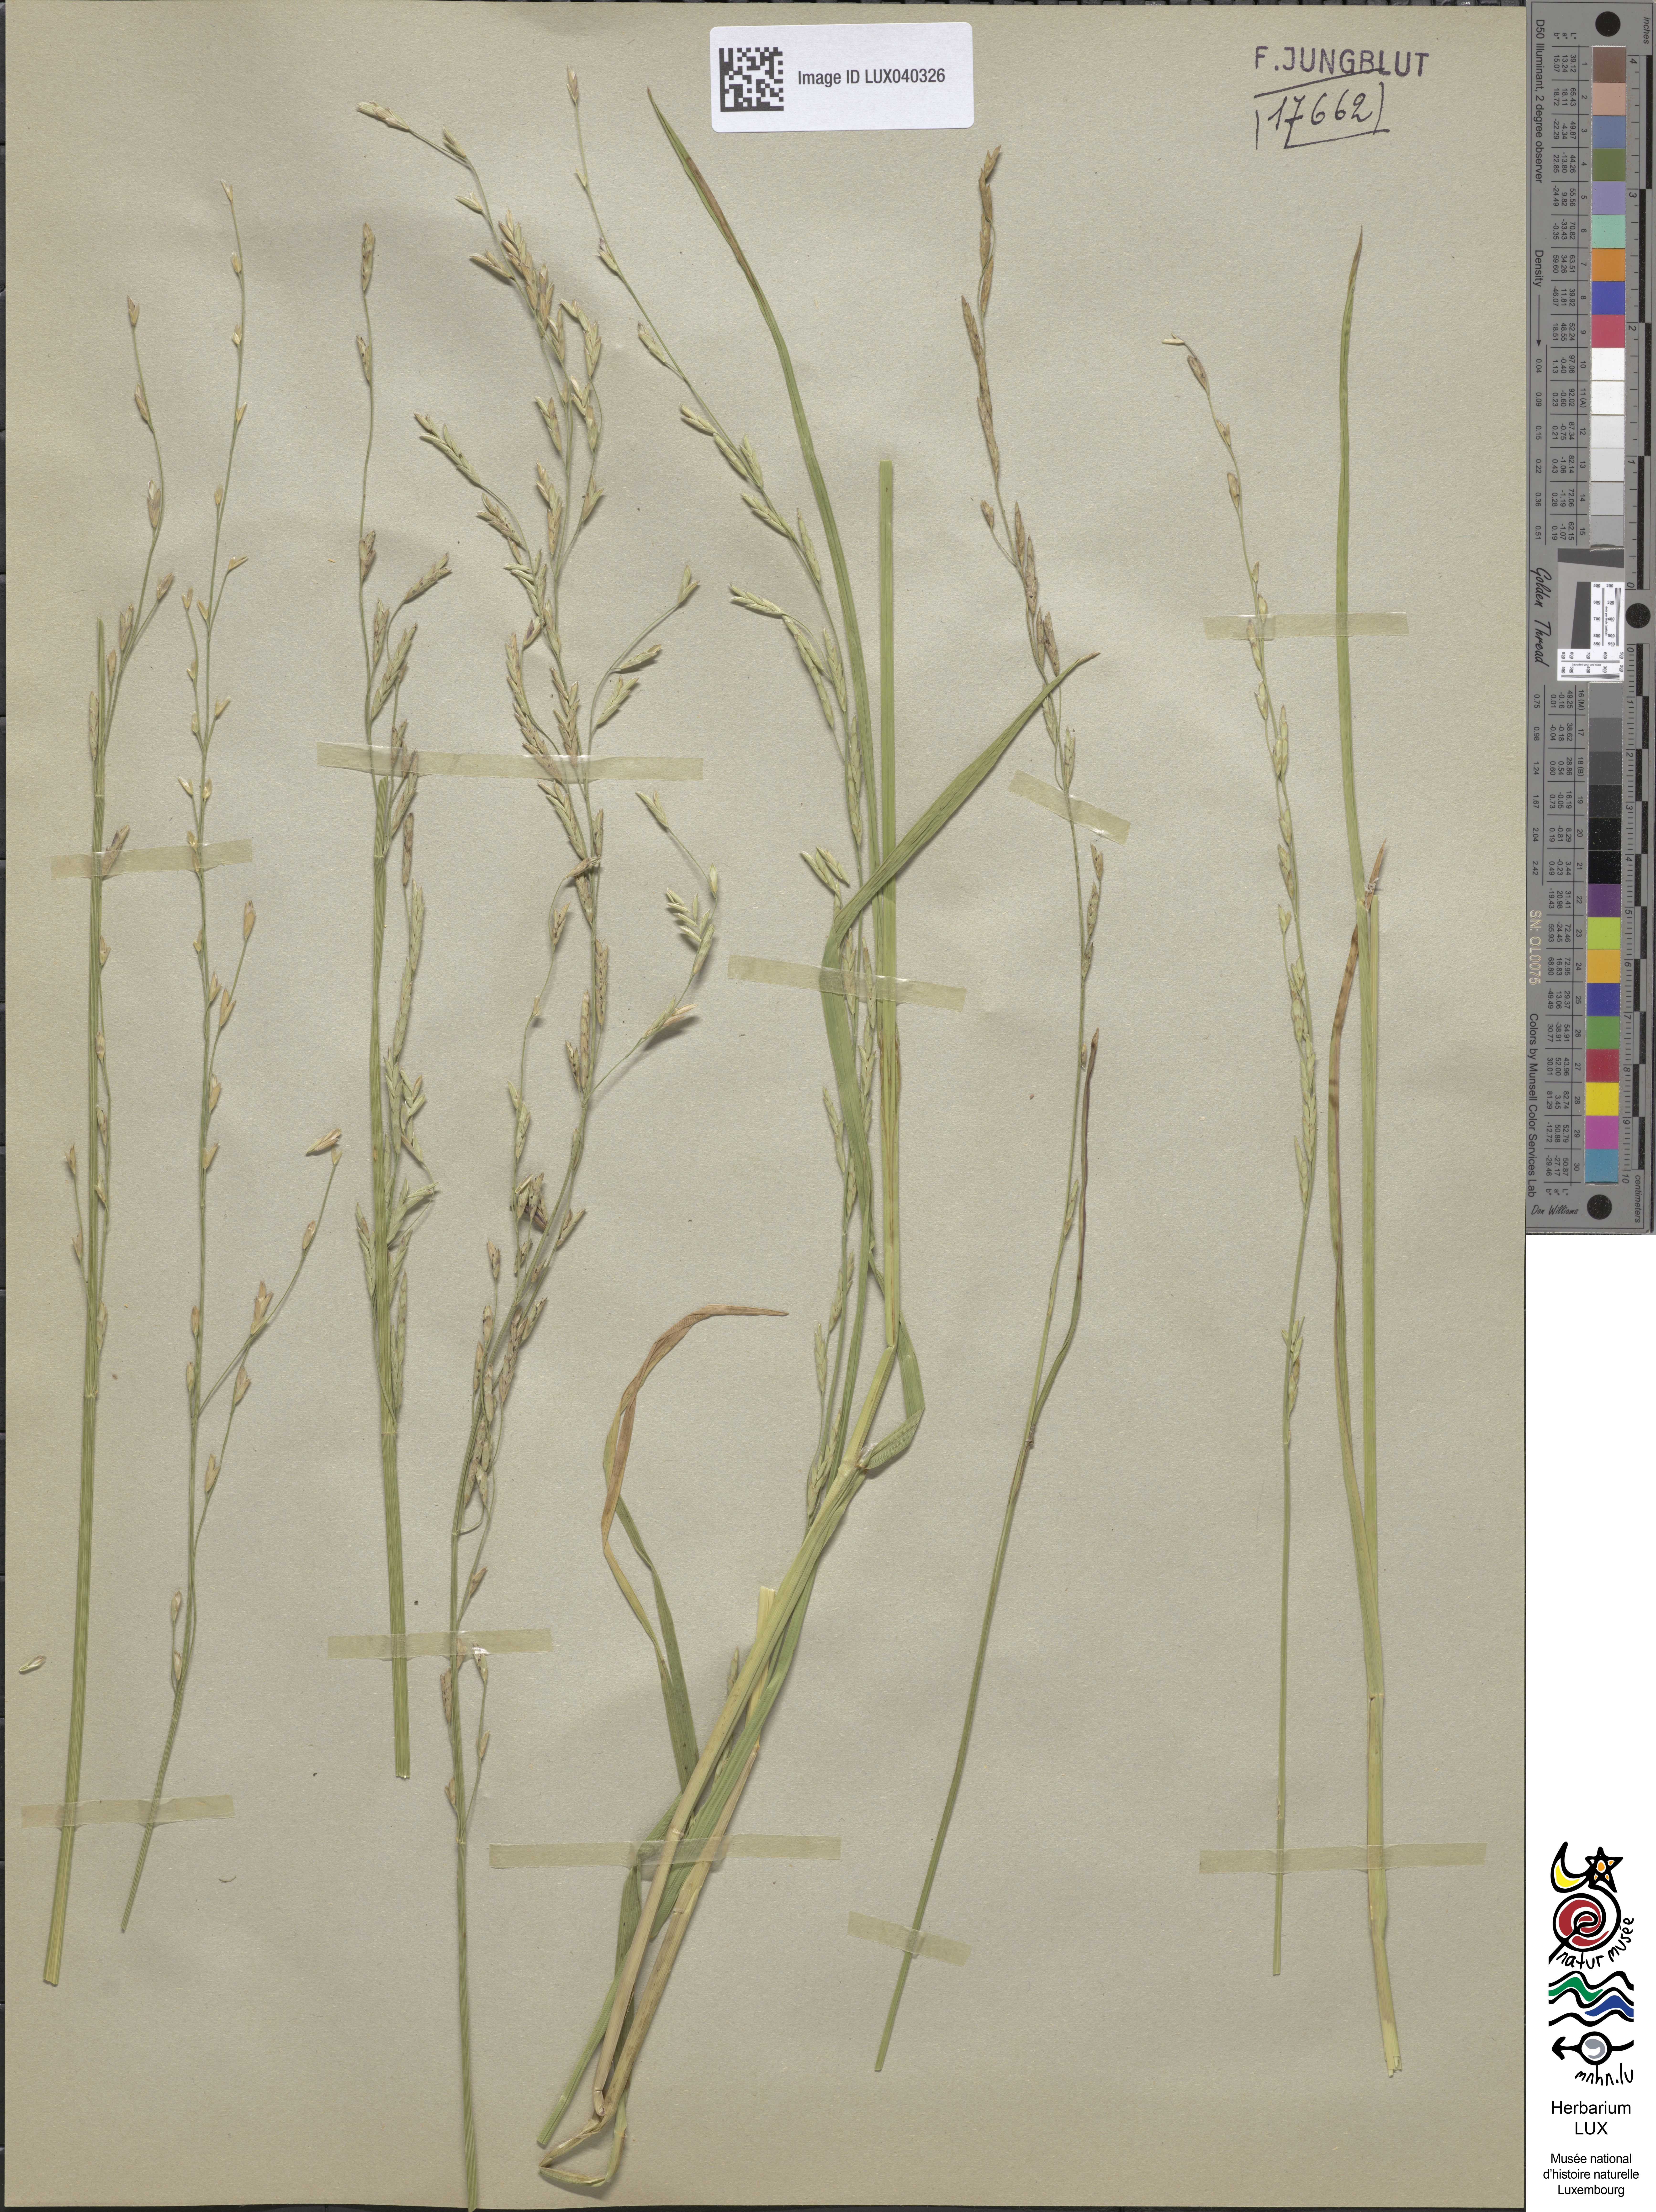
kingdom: Plantae
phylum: Tracheophyta
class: Liliopsida
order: Poales
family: Poaceae
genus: Glyceria
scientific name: Glyceria notata
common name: Plicate sweet-grass
